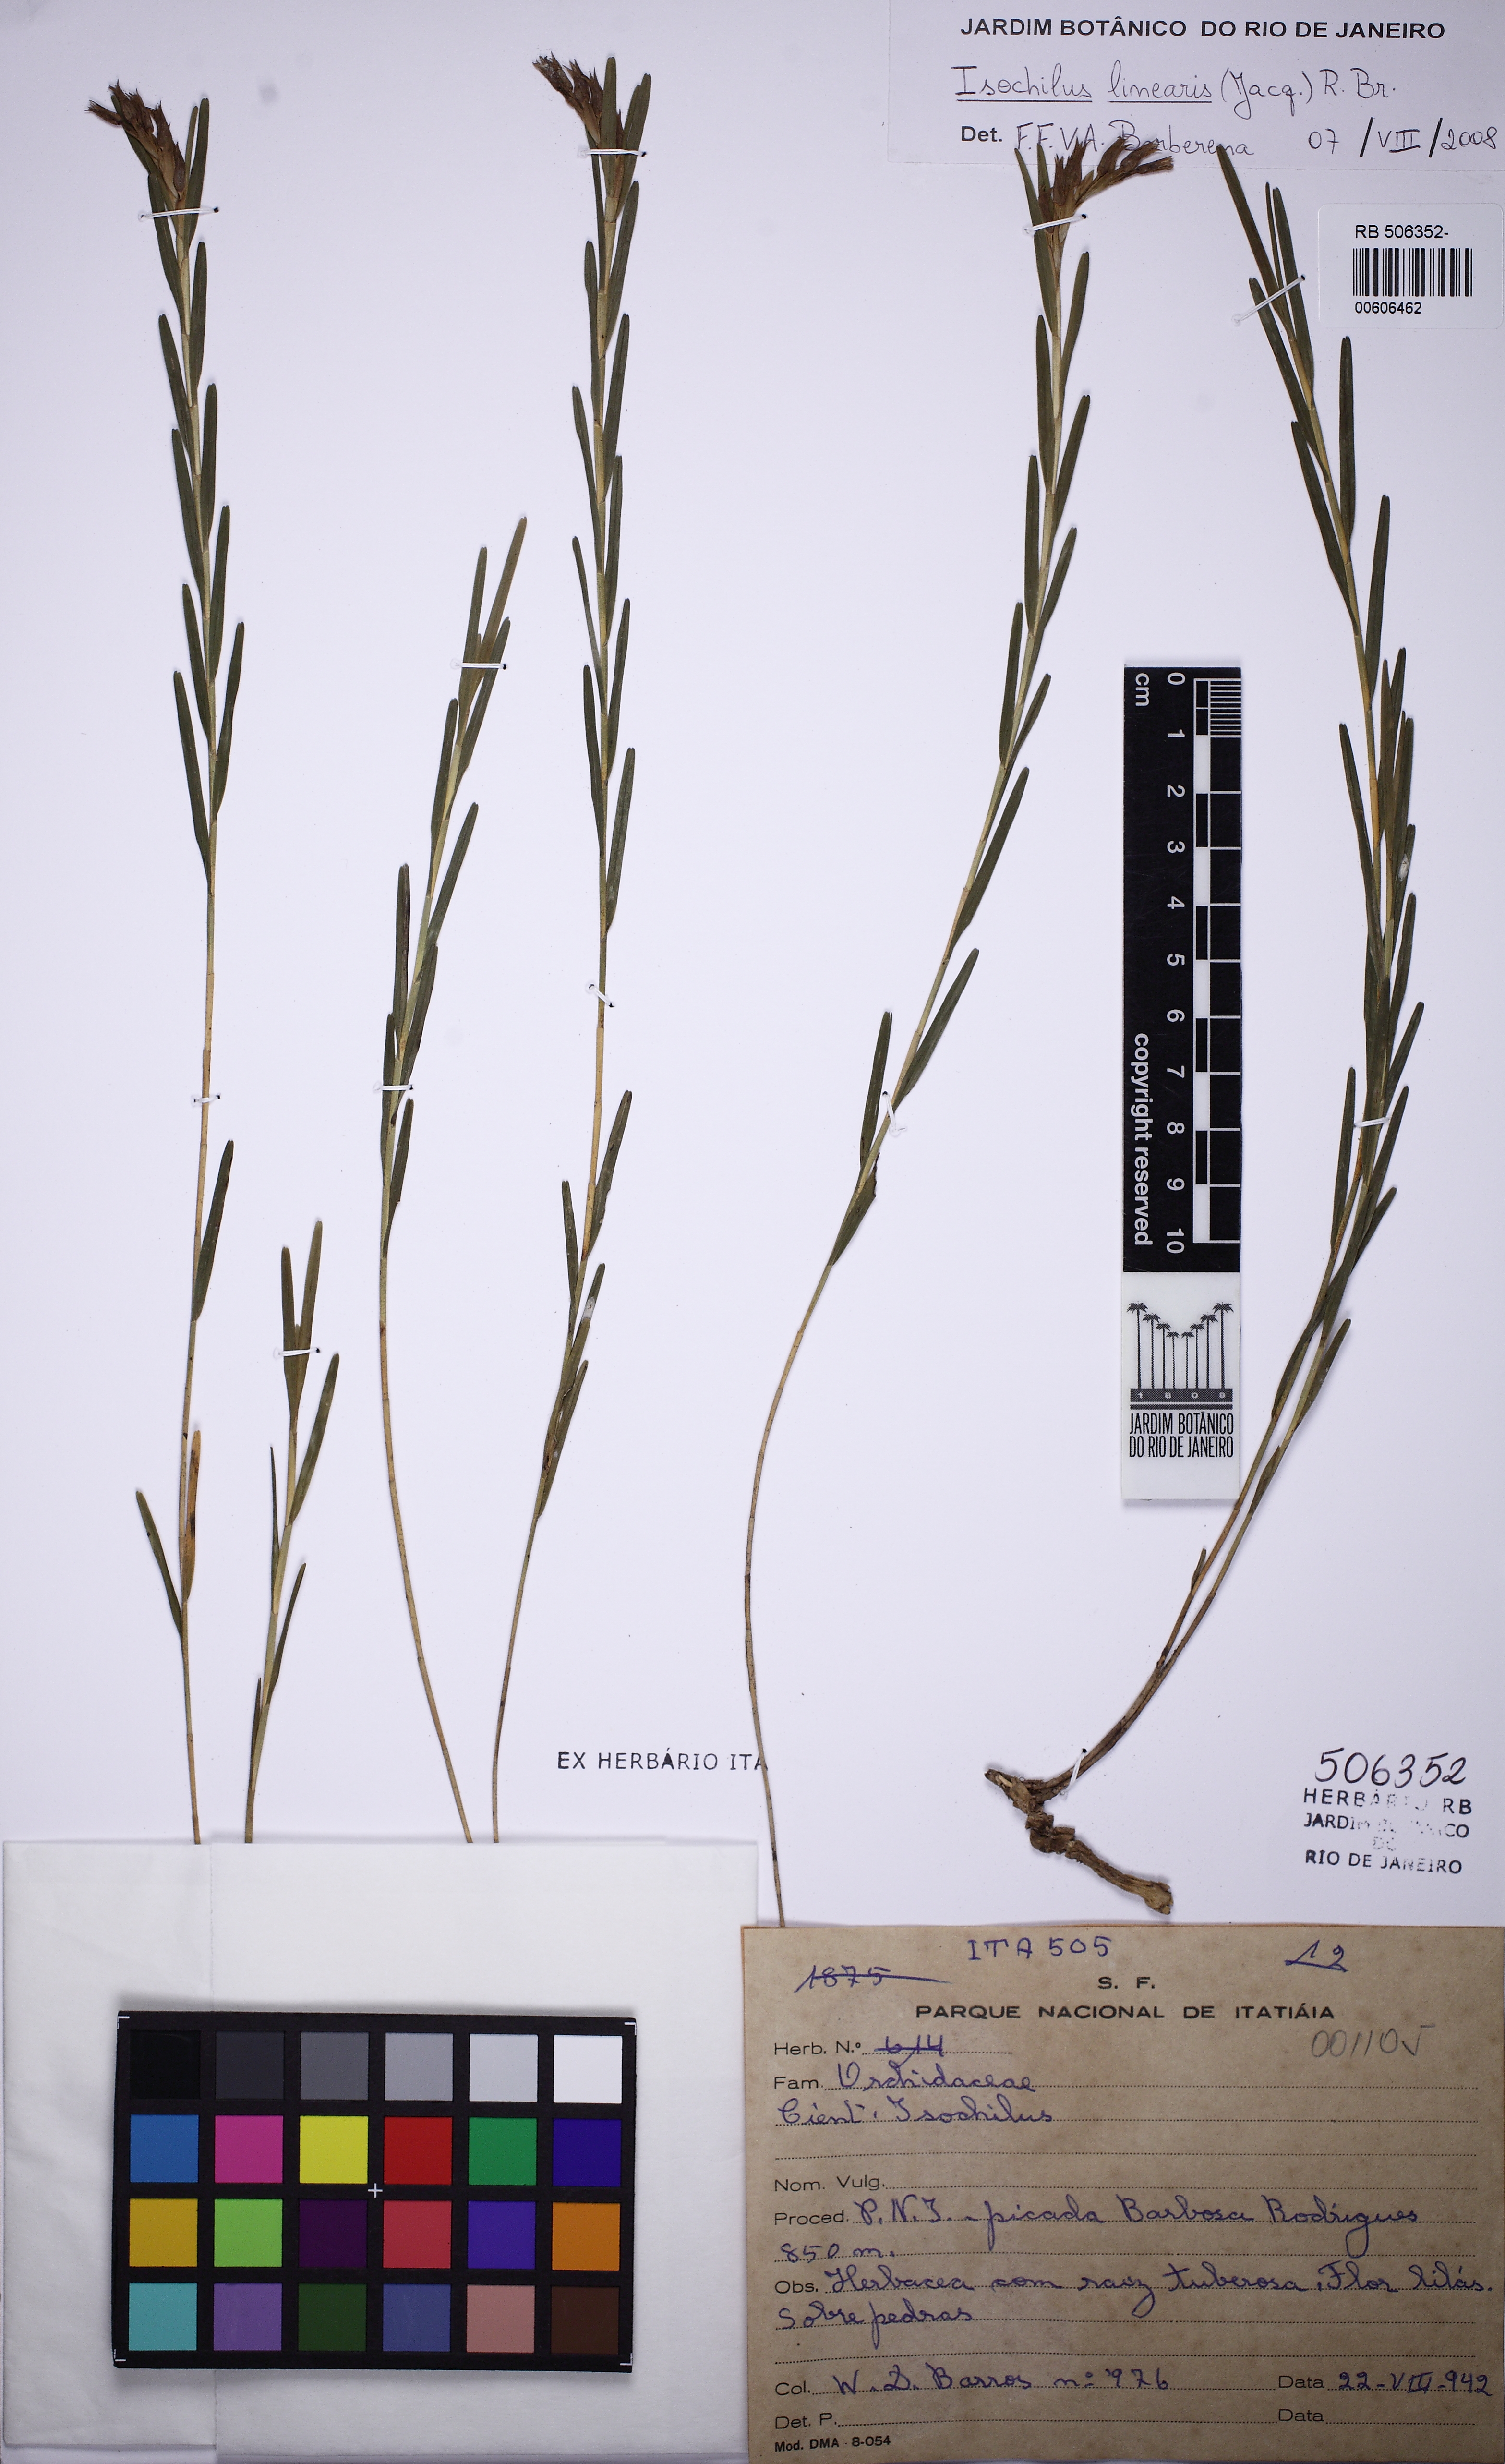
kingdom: Plantae
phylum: Tracheophyta
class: Liliopsida
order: Asparagales
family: Orchidaceae
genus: Isochilus
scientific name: Isochilus linearis
